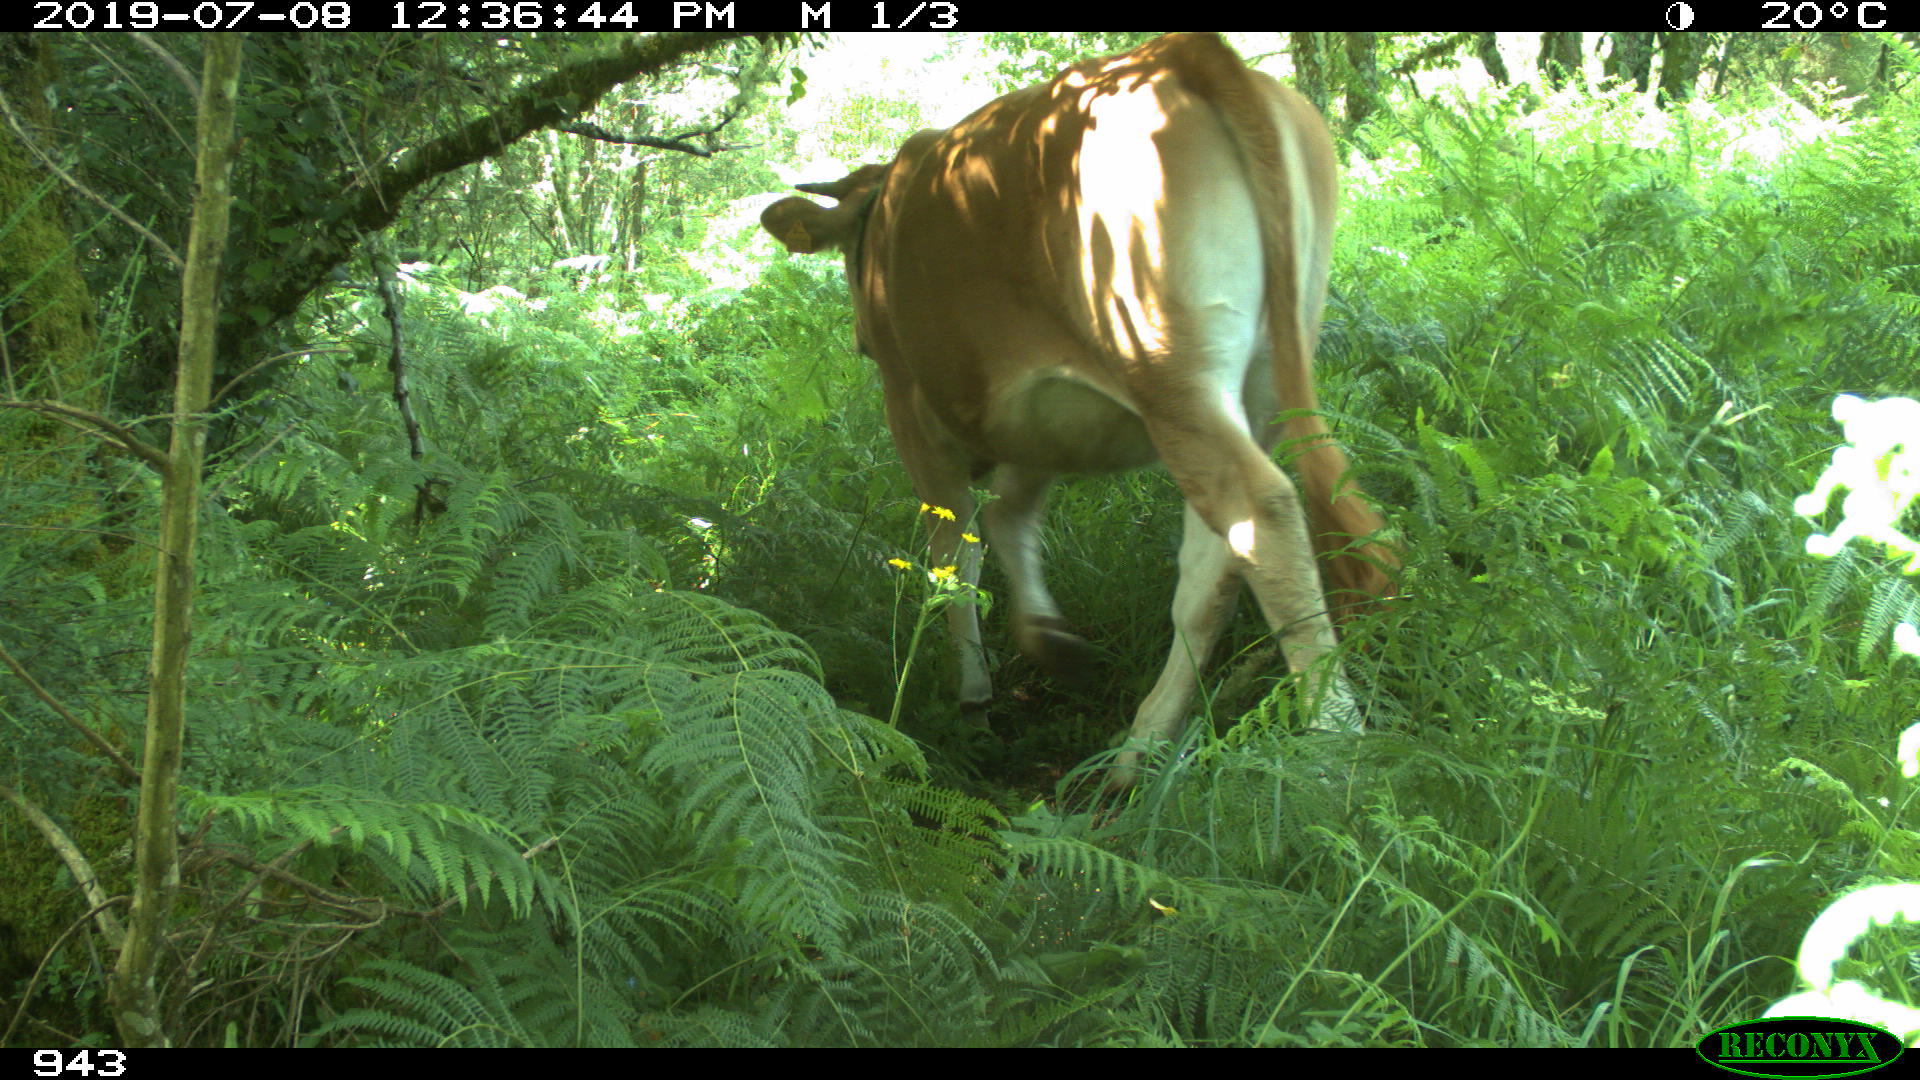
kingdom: Animalia
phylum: Chordata
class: Mammalia
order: Artiodactyla
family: Bovidae
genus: Bos
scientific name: Bos taurus
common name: Domesticated cattle
